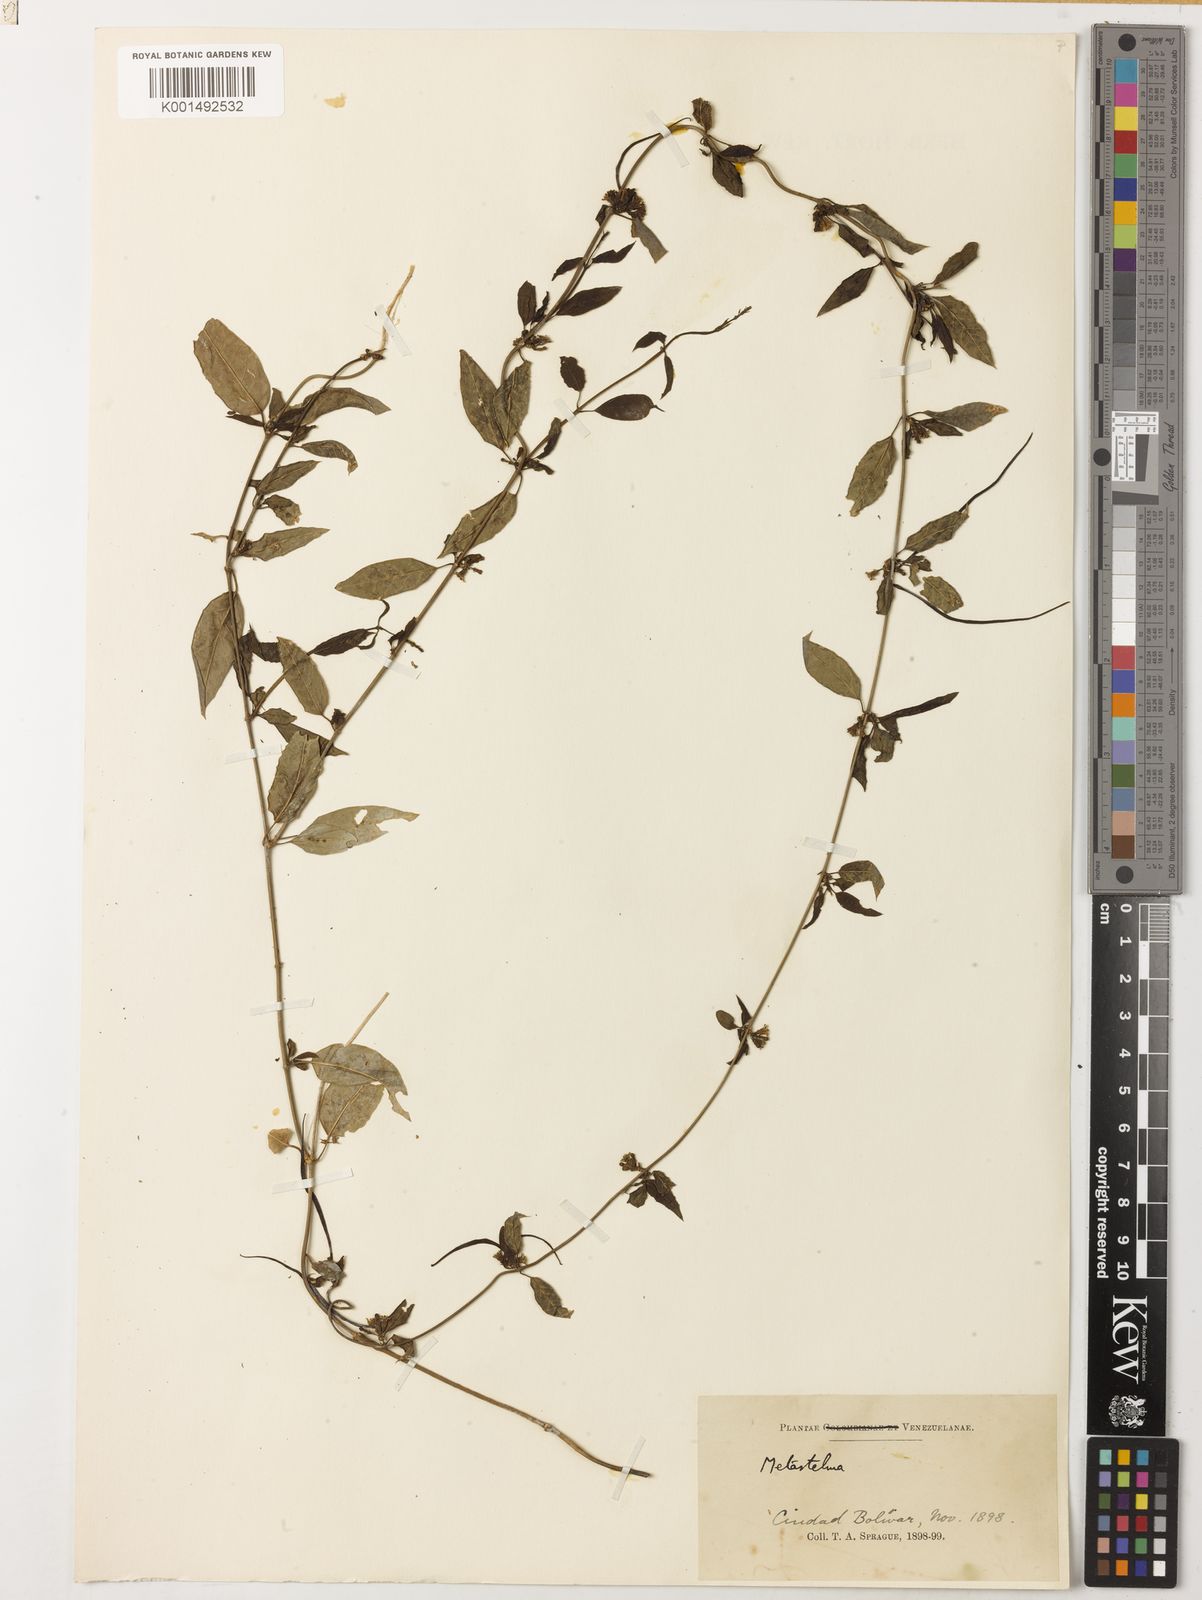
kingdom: Plantae
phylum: Tracheophyta
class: Magnoliopsida
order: Gentianales
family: Apocynaceae
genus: Metastelma
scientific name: Metastelma parviflorum
